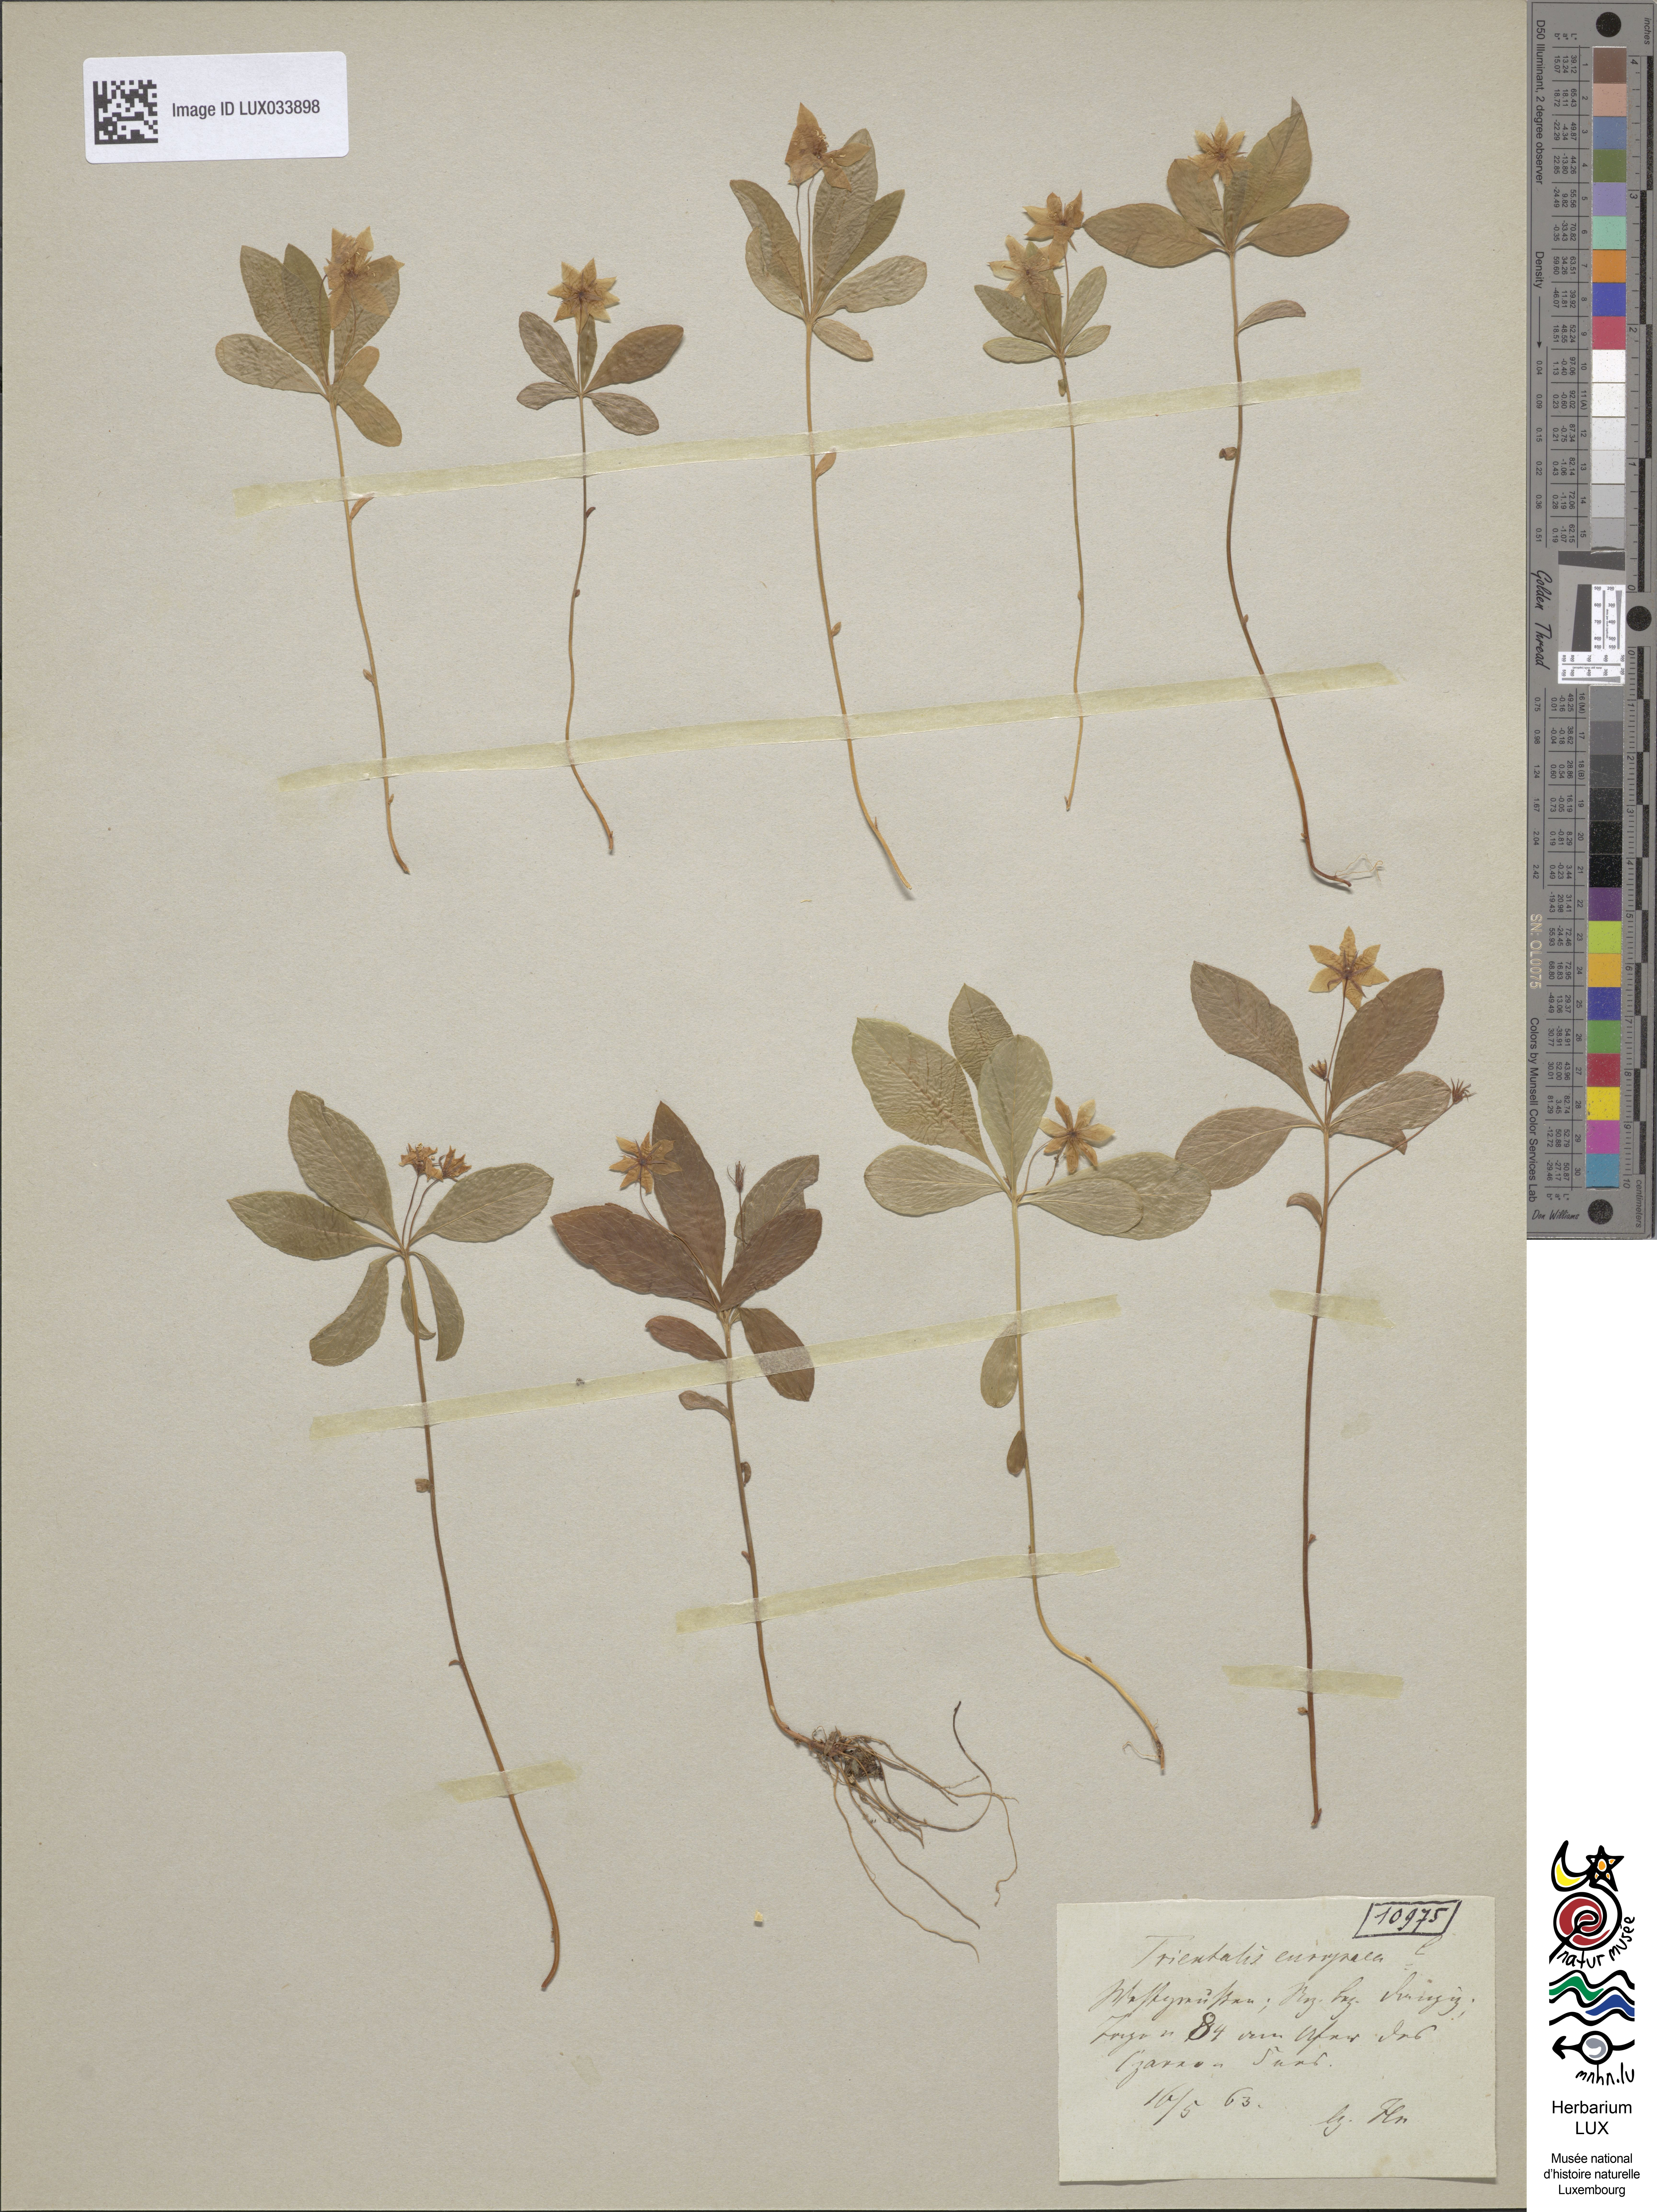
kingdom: Plantae
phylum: Tracheophyta
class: Magnoliopsida
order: Ericales
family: Primulaceae
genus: Lysimachia
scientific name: Lysimachia europaea
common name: Arctic starflower
